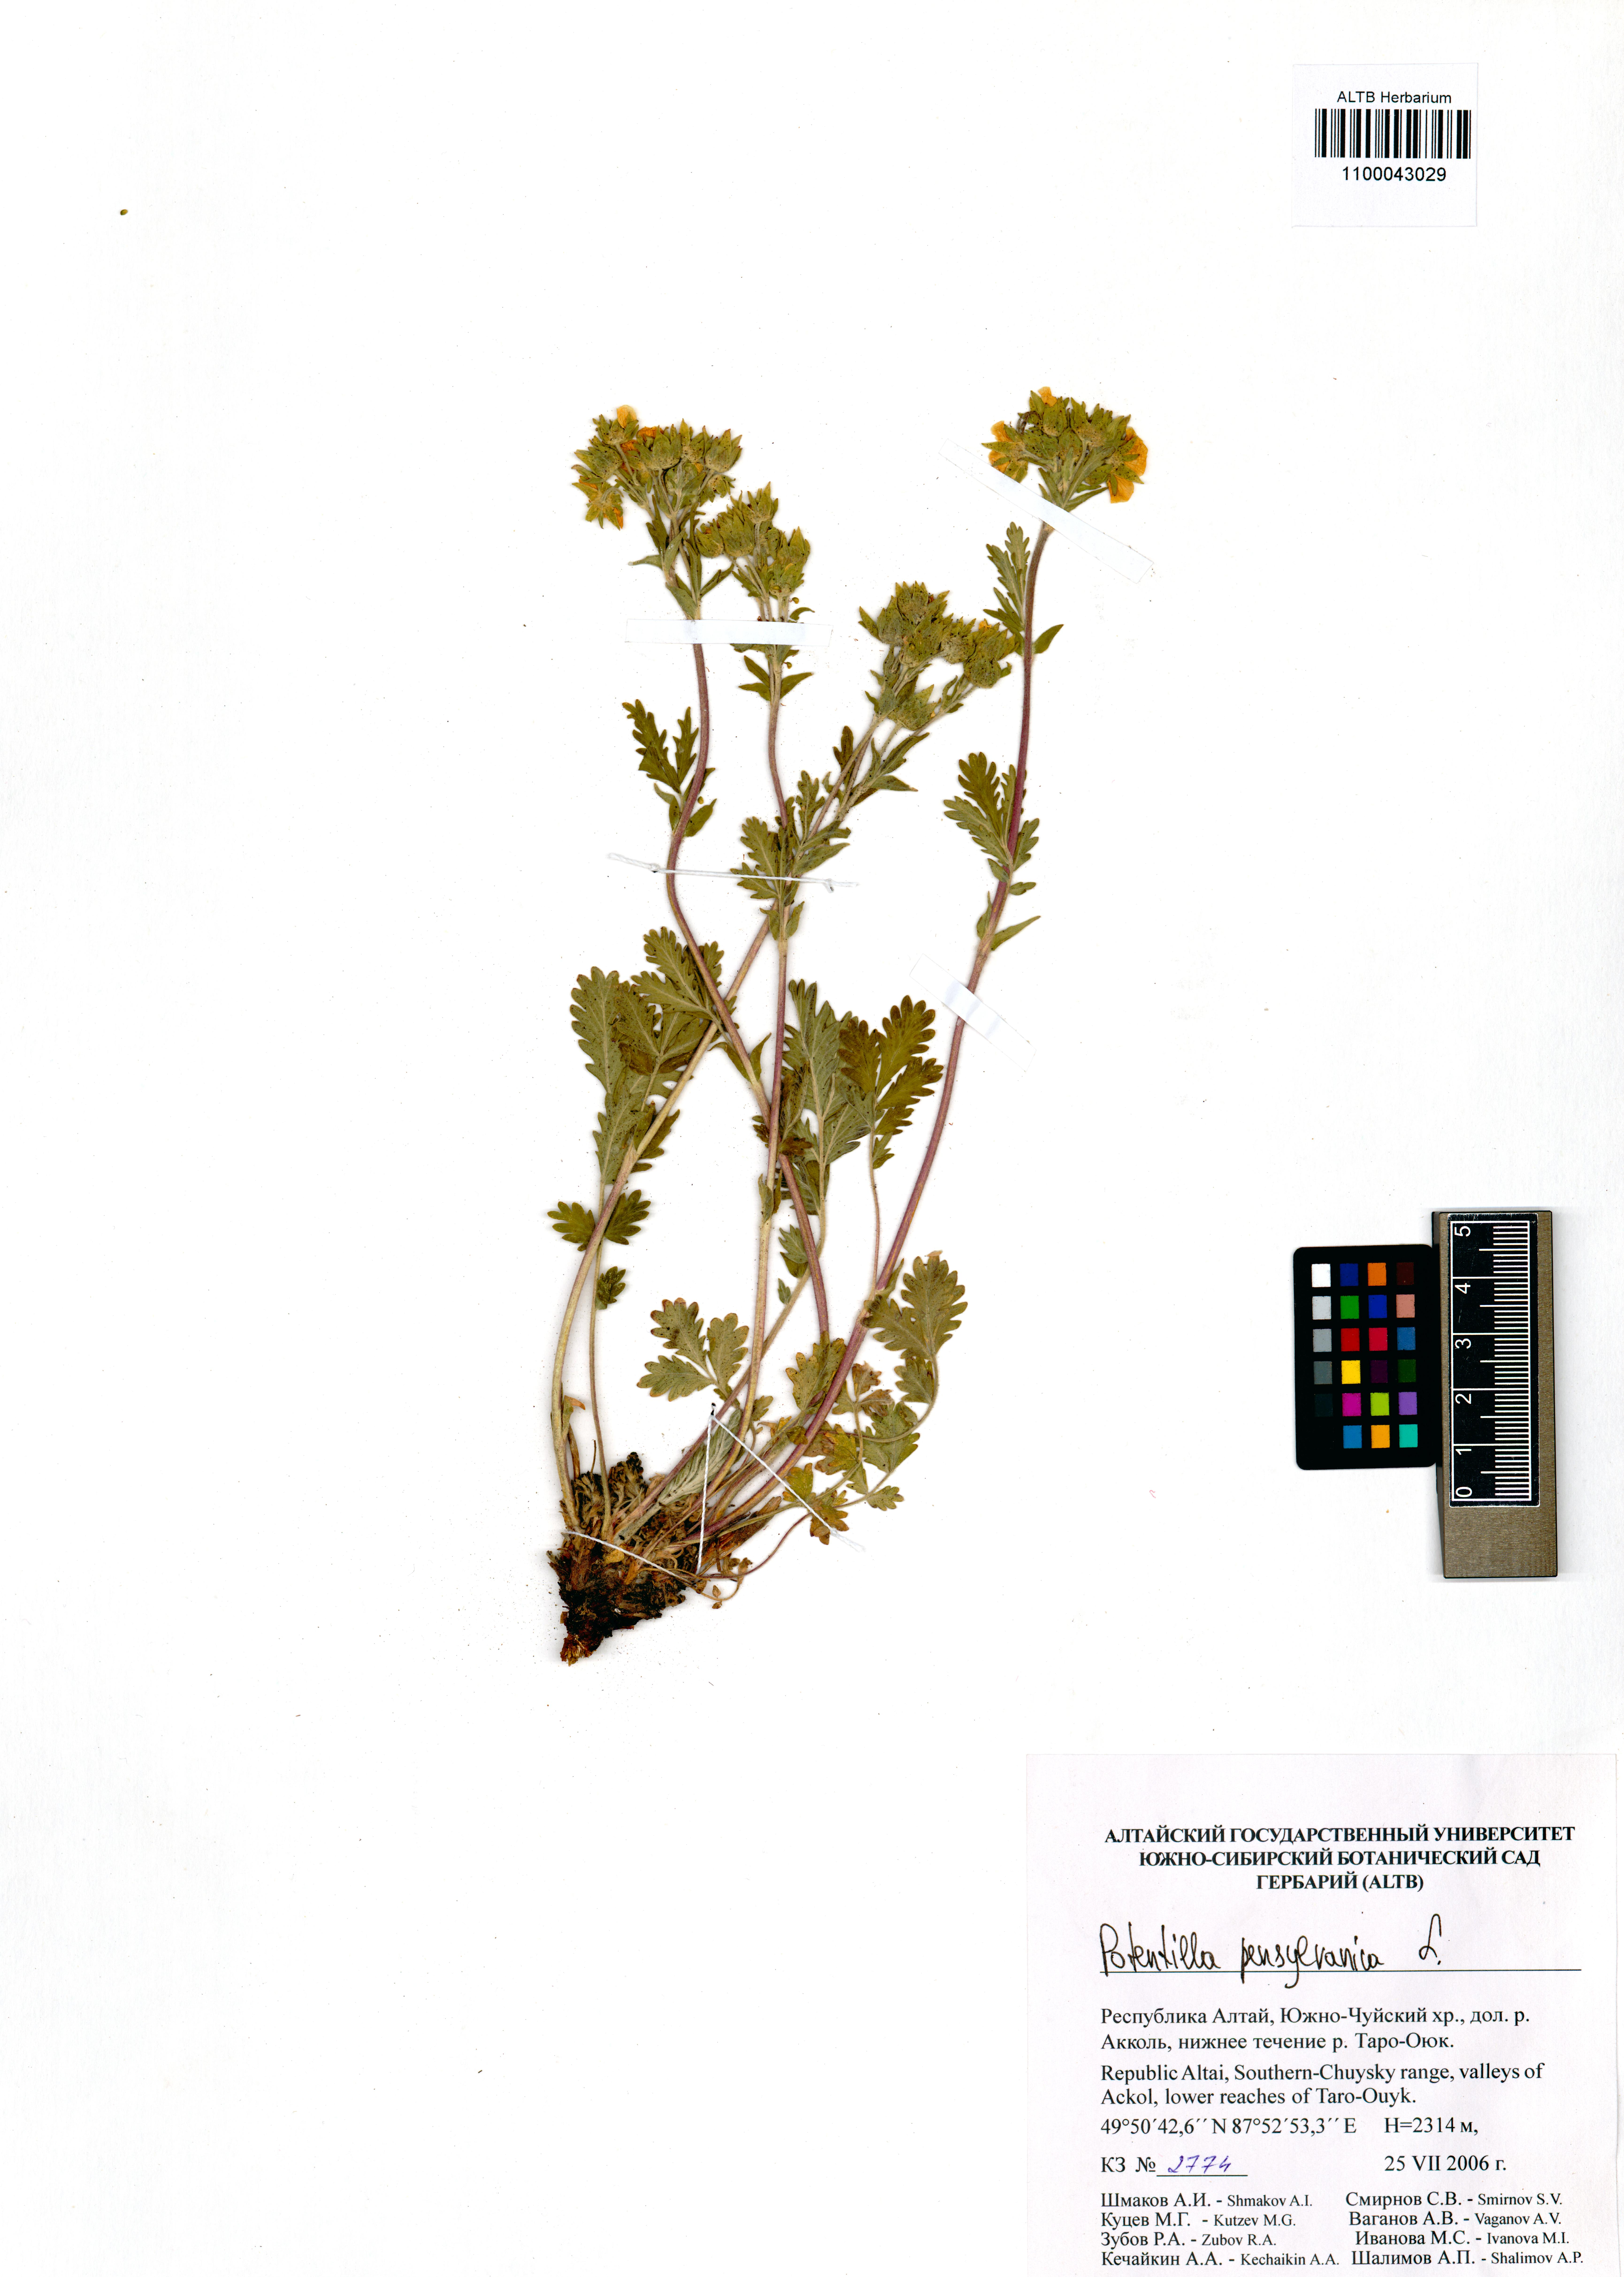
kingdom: Plantae
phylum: Tracheophyta
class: Magnoliopsida
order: Rosales
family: Rosaceae
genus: Potentilla
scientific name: Potentilla pensylvanica
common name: Pennsylvania cinquefoil
